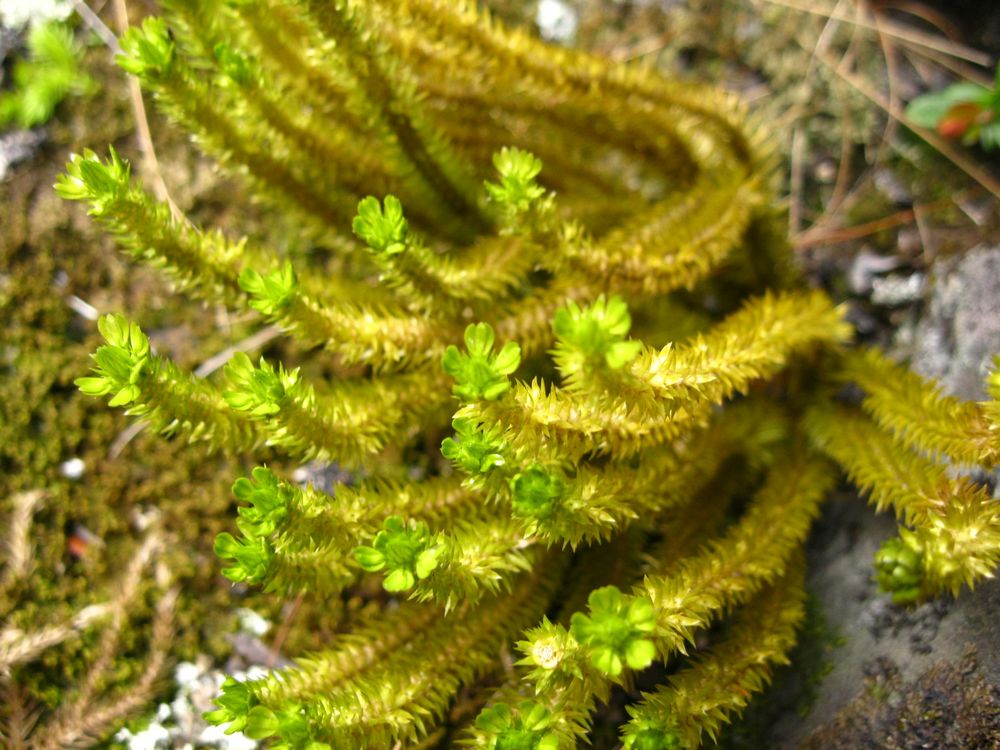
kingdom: Plantae
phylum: Tracheophyta
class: Lycopodiopsida
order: Lycopodiales
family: Lycopodiaceae
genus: Huperzia
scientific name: Huperzia selago
